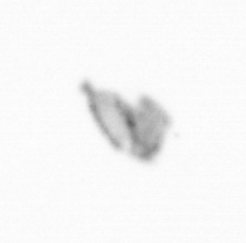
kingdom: Animalia
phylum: Arthropoda
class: Copepoda
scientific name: Copepoda
